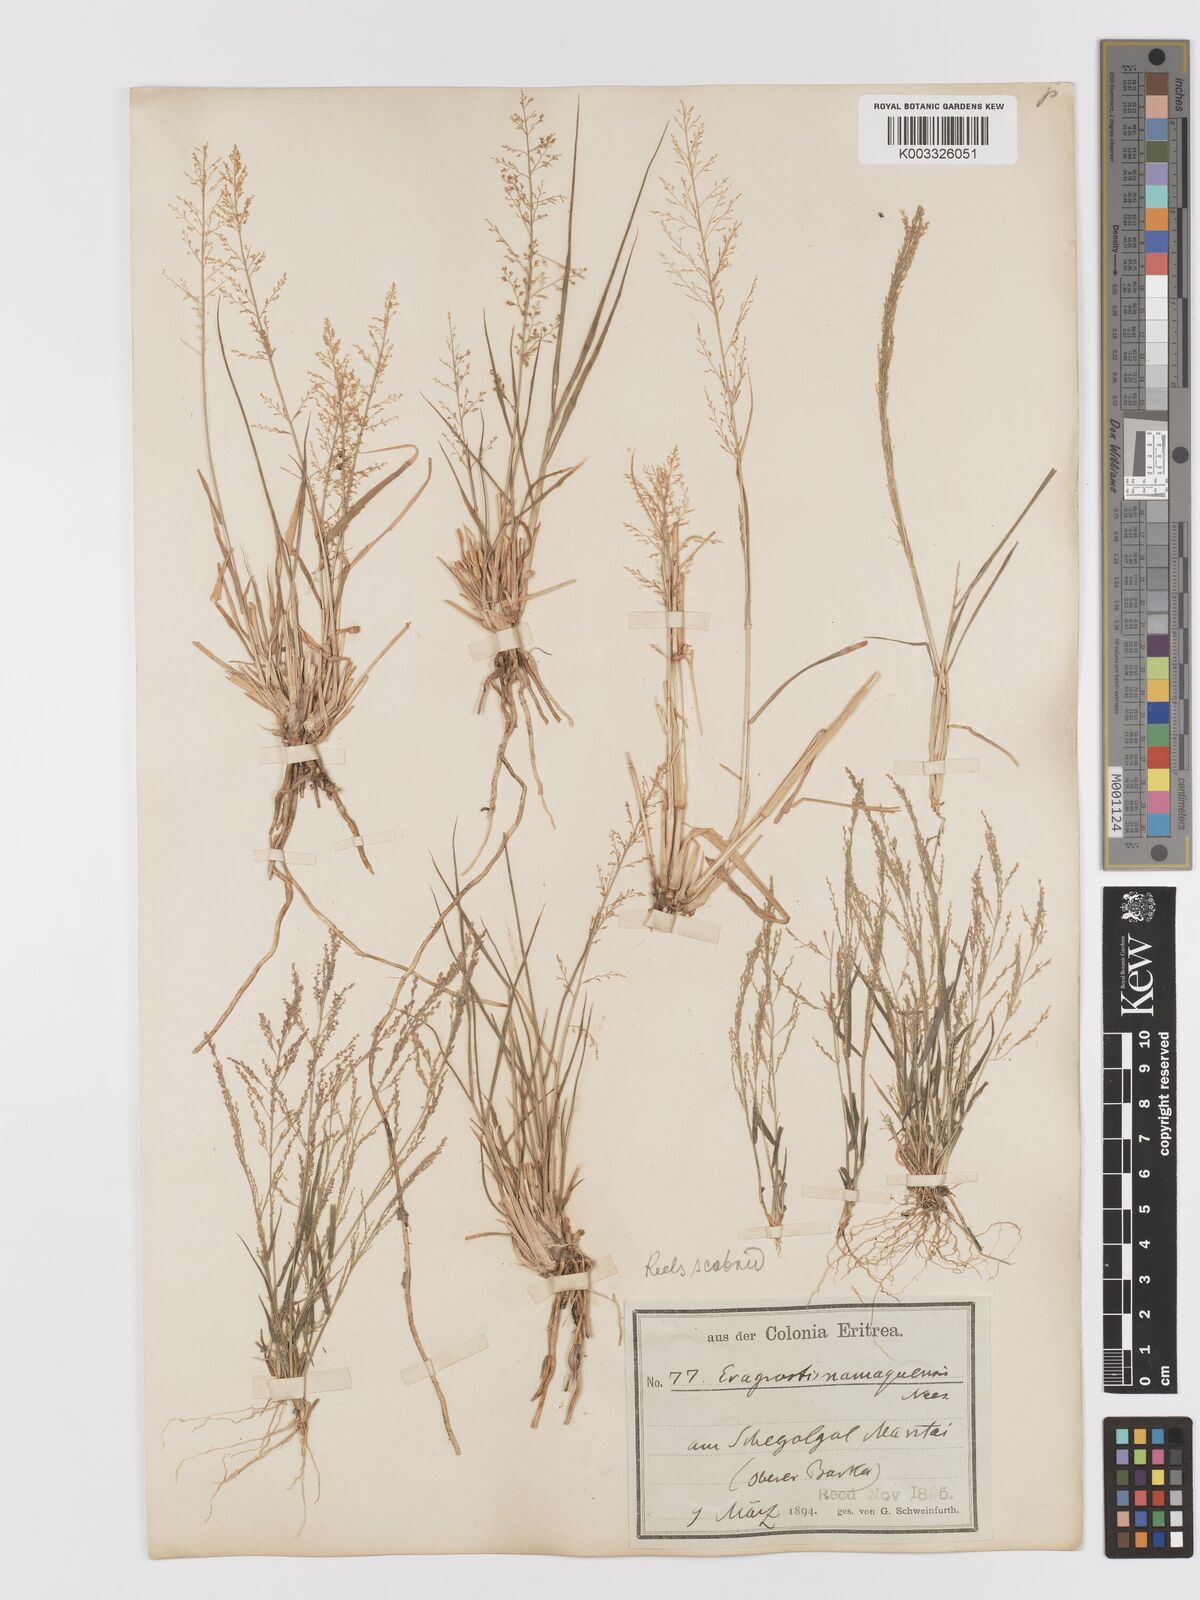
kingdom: Plantae
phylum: Tracheophyta
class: Liliopsida
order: Poales
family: Poaceae
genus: Eragrostis
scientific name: Eragrostis japonica
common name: Pond lovegrass
